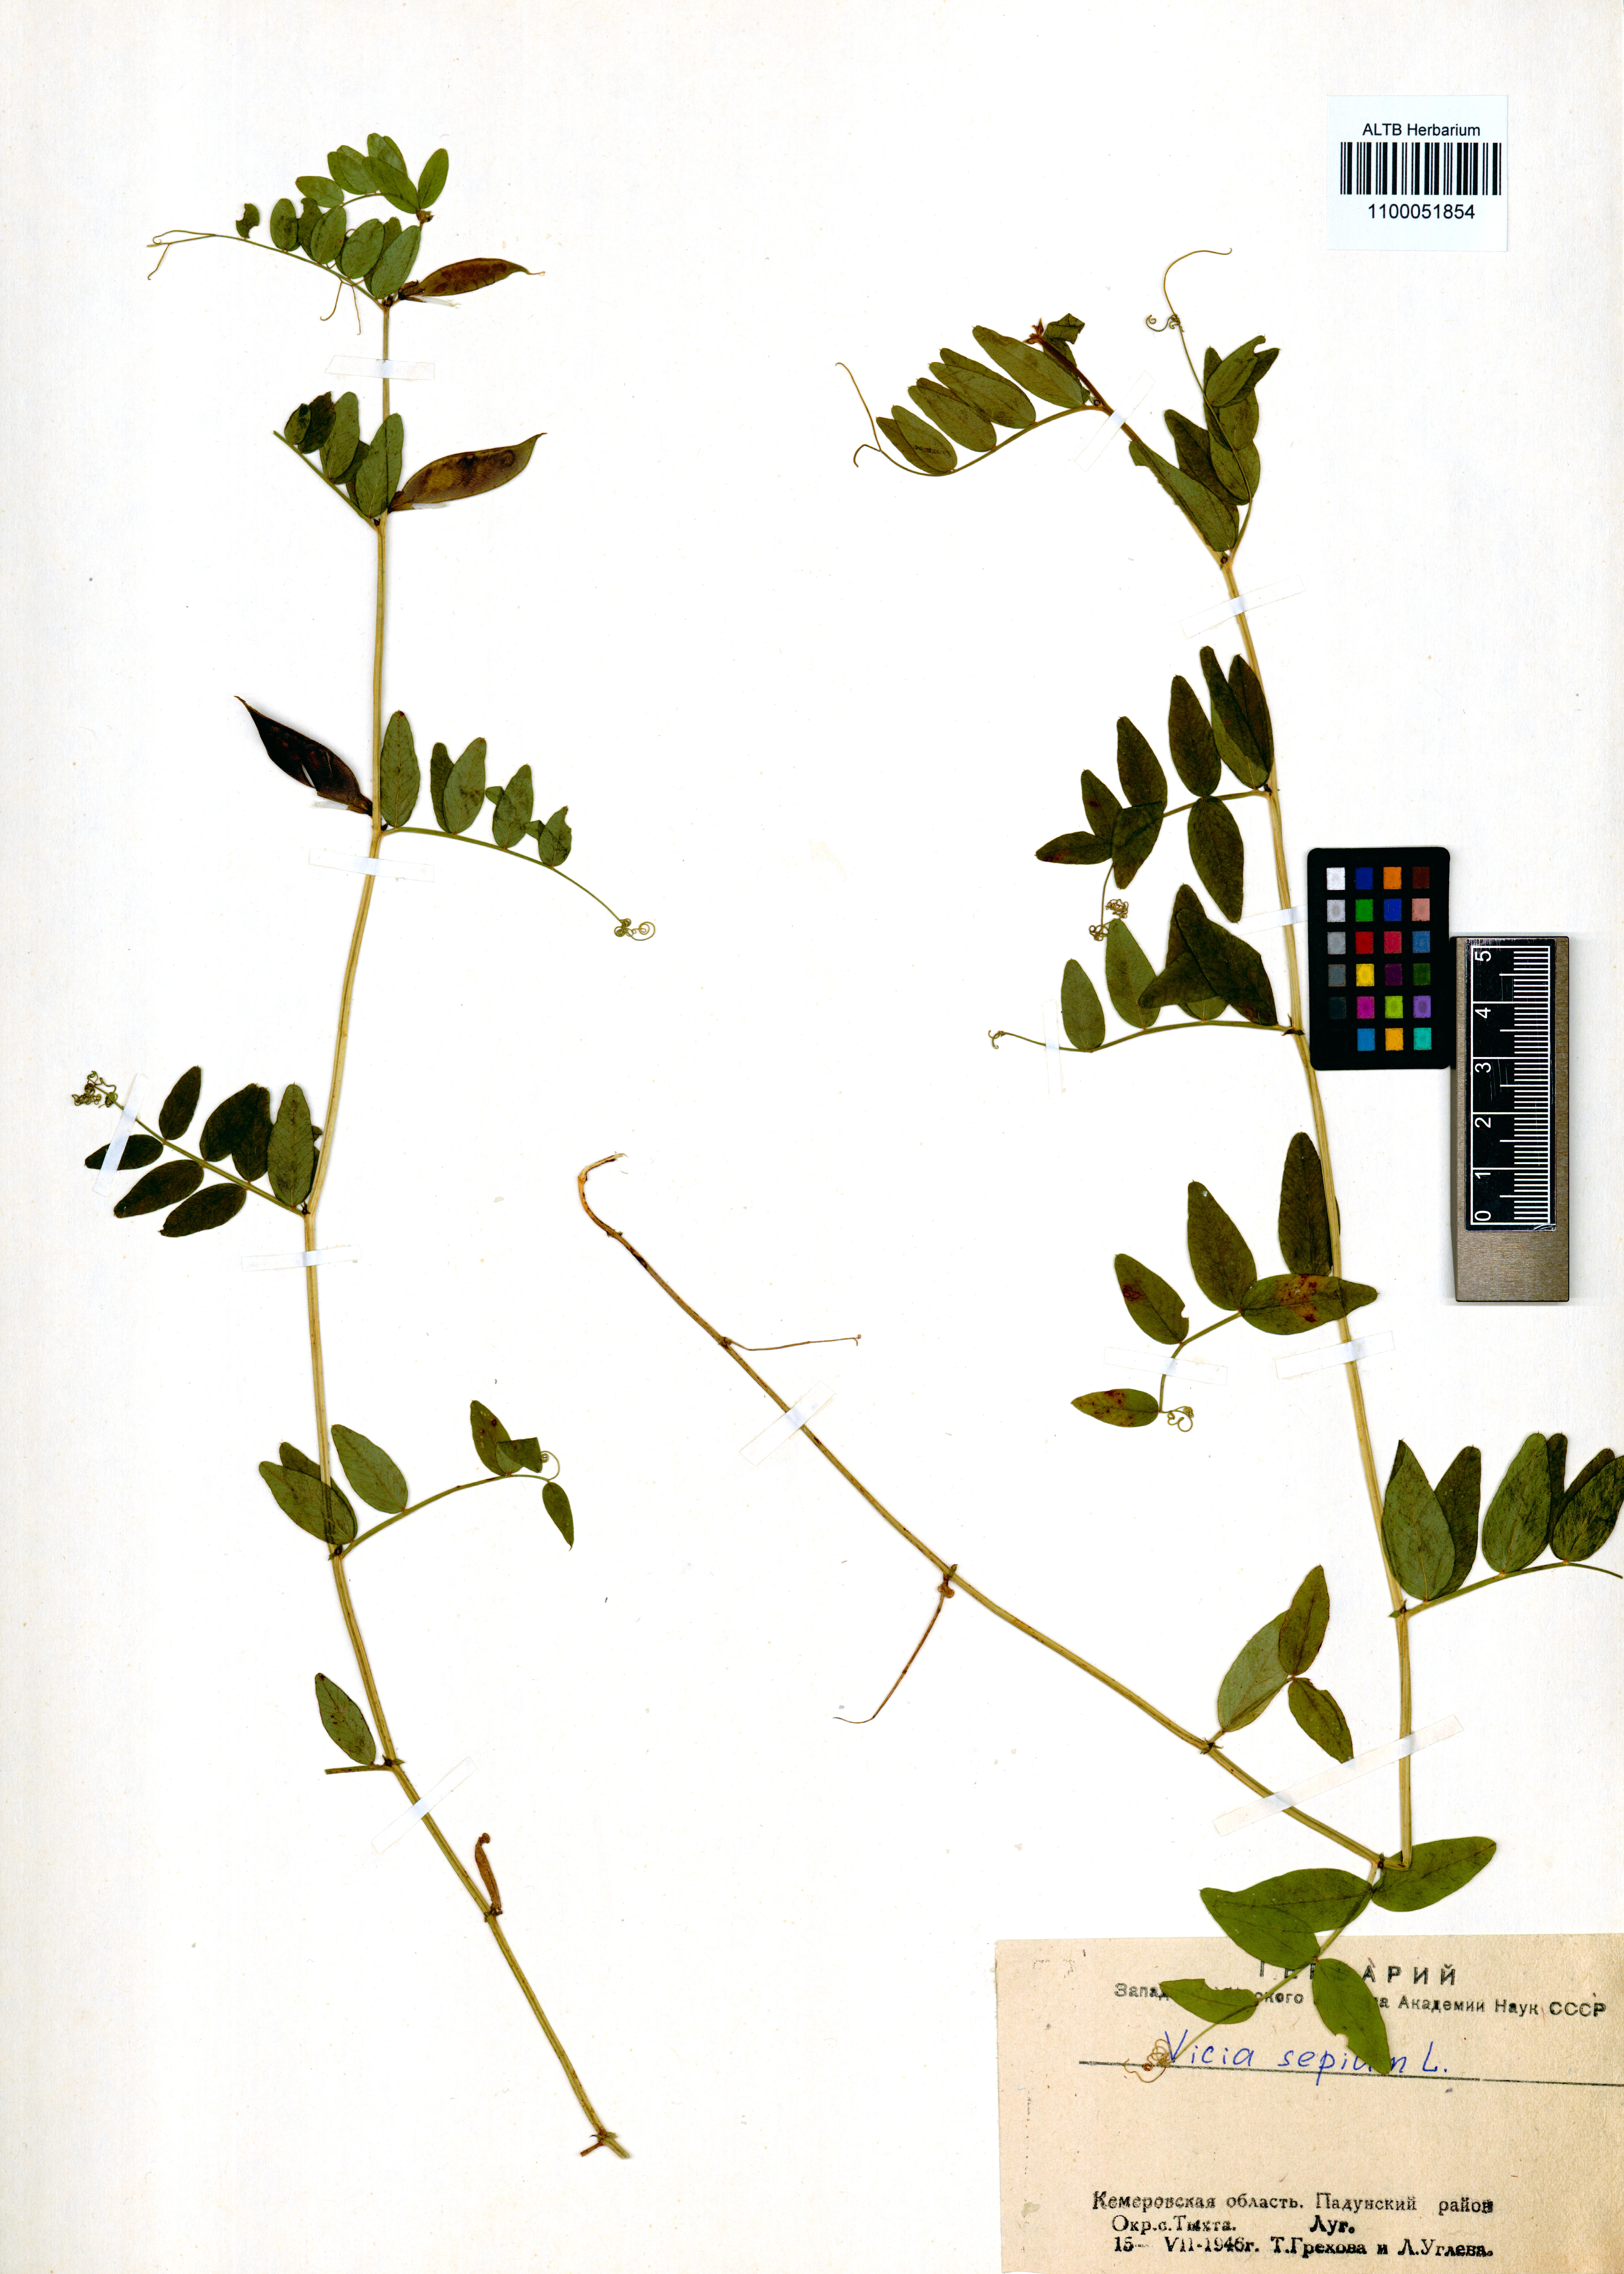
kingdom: Plantae
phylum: Tracheophyta
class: Magnoliopsida
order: Fabales
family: Fabaceae
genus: Vicia
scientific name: Vicia sepium
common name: Bush vetch
